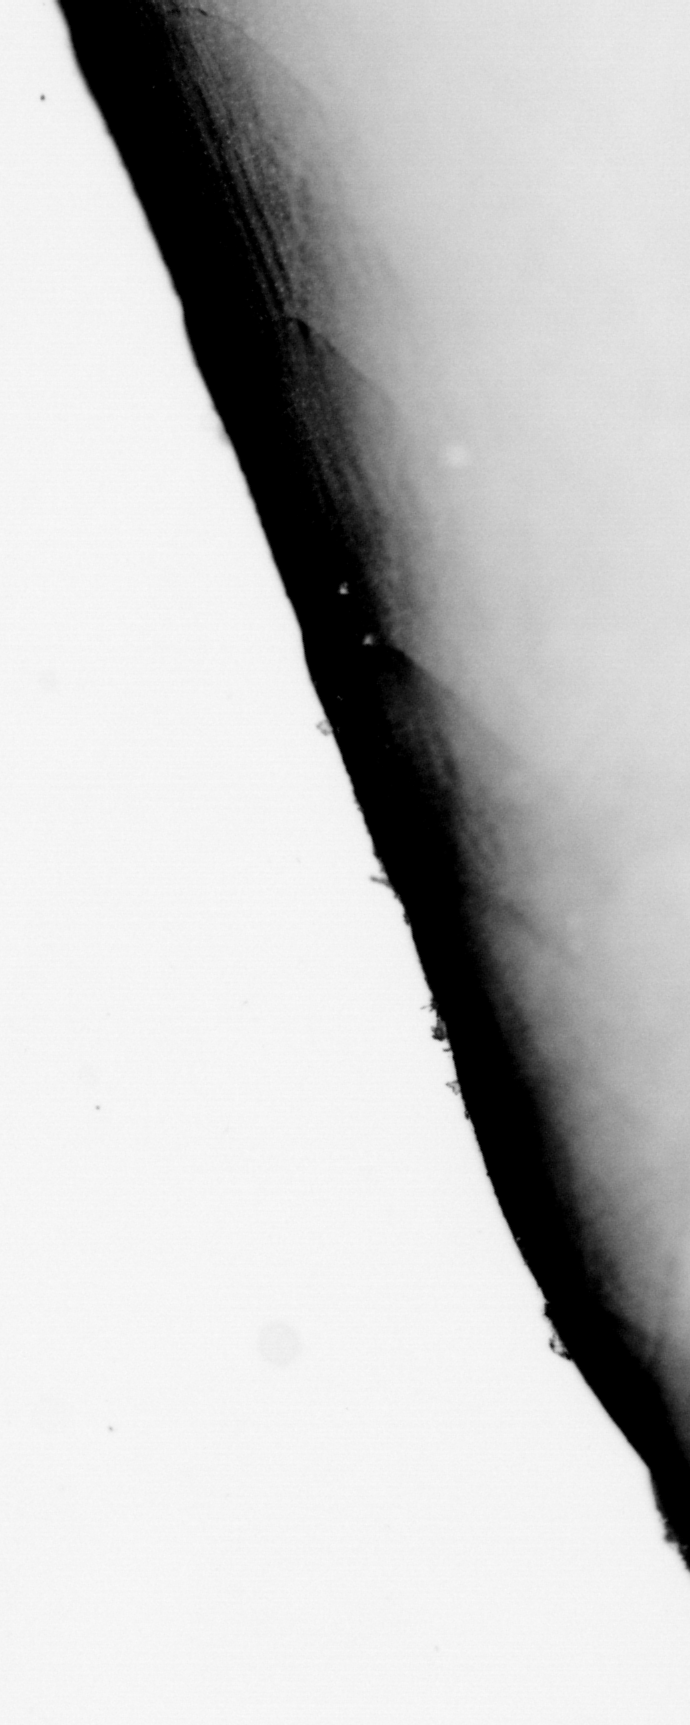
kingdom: Animalia
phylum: Chordata
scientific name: Chordata
